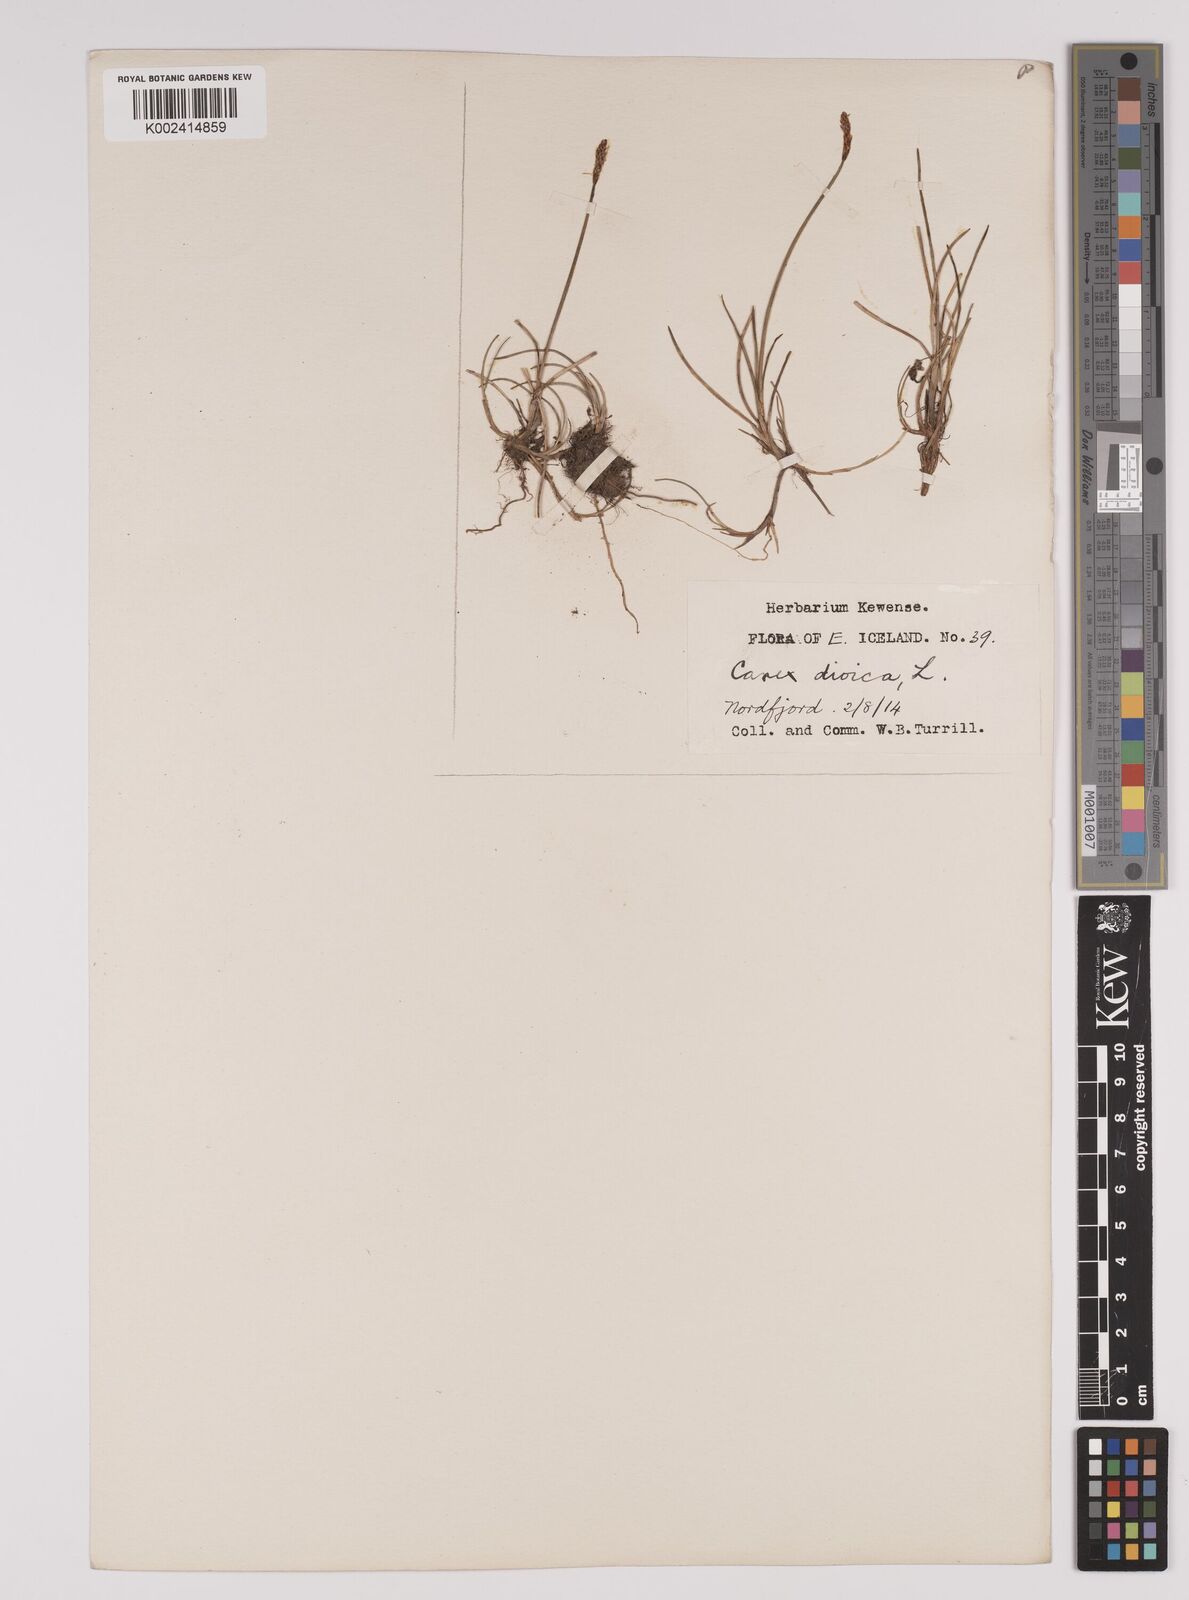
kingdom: Plantae
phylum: Tracheophyta
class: Liliopsida
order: Poales
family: Cyperaceae
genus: Carex
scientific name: Carex dioica
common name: Dioecious sedge
